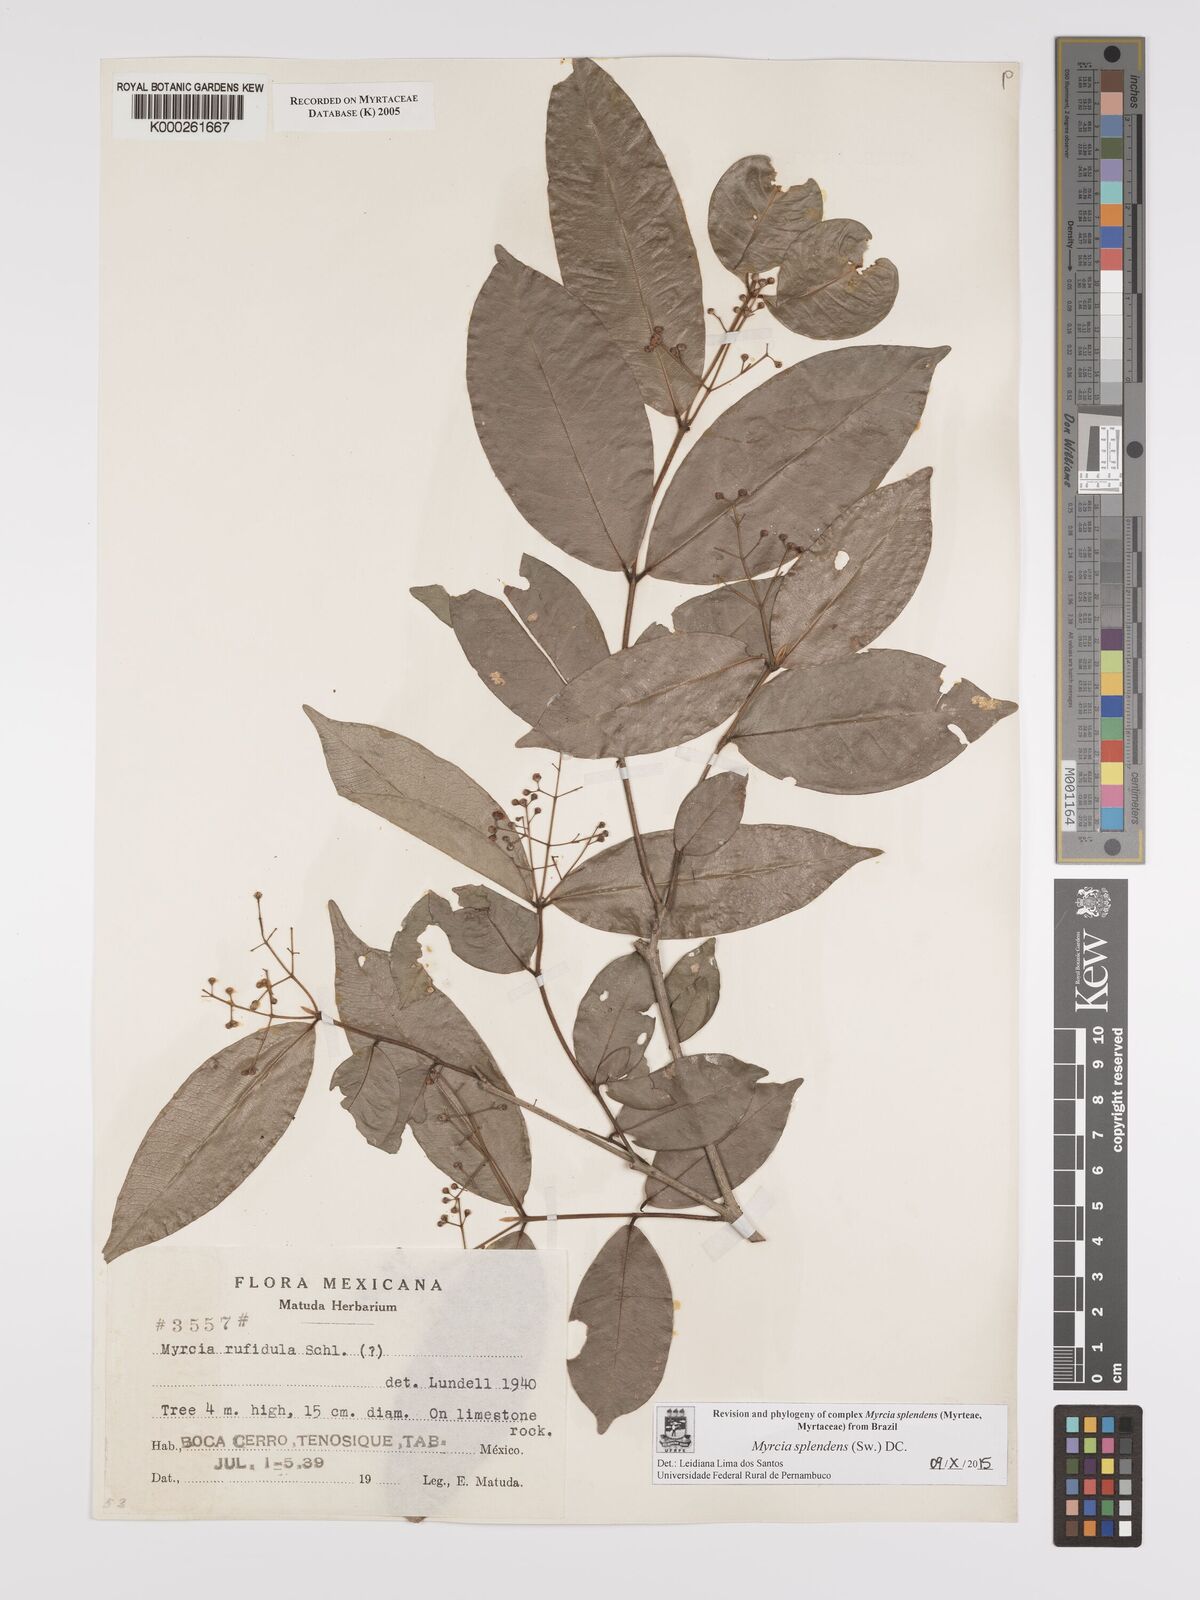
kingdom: Plantae
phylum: Tracheophyta
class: Magnoliopsida
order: Myrtales
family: Myrtaceae
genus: Myrcia
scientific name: Myrcia splendens
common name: Surinam cherry
